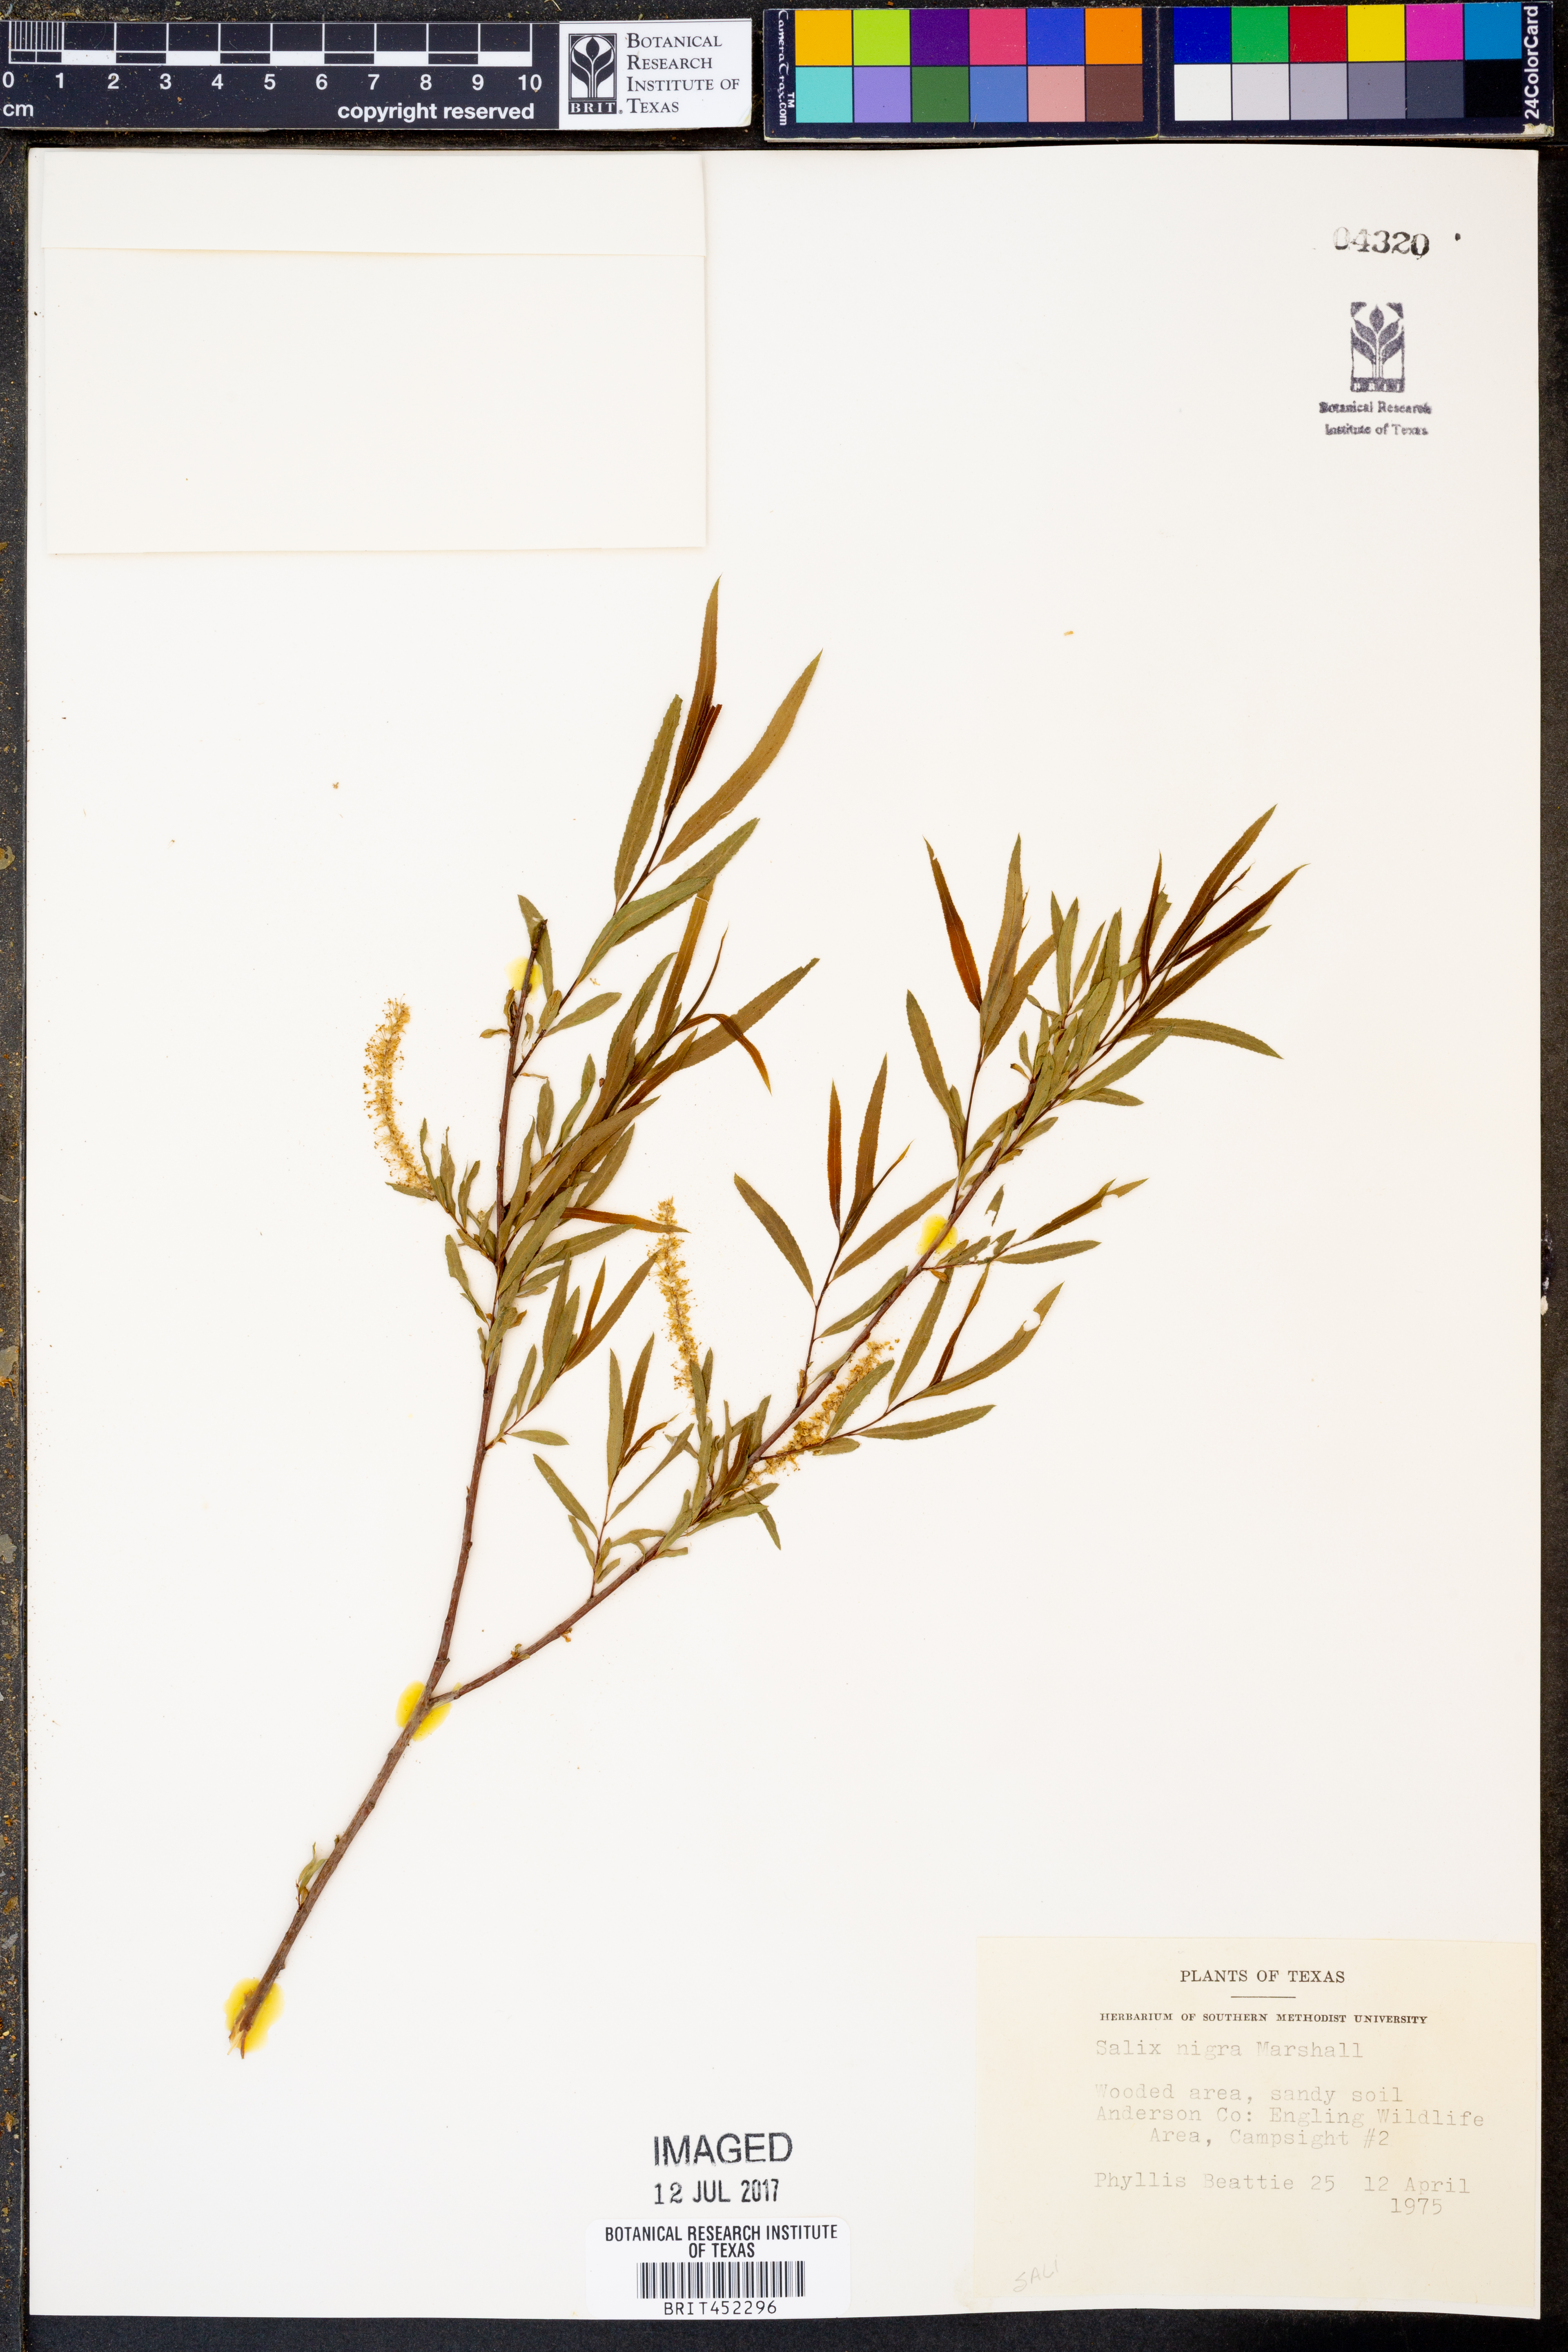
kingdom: Plantae
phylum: Tracheophyta
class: Magnoliopsida
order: Malpighiales
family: Salicaceae
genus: Salix
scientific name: Salix nigra
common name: Black willow
